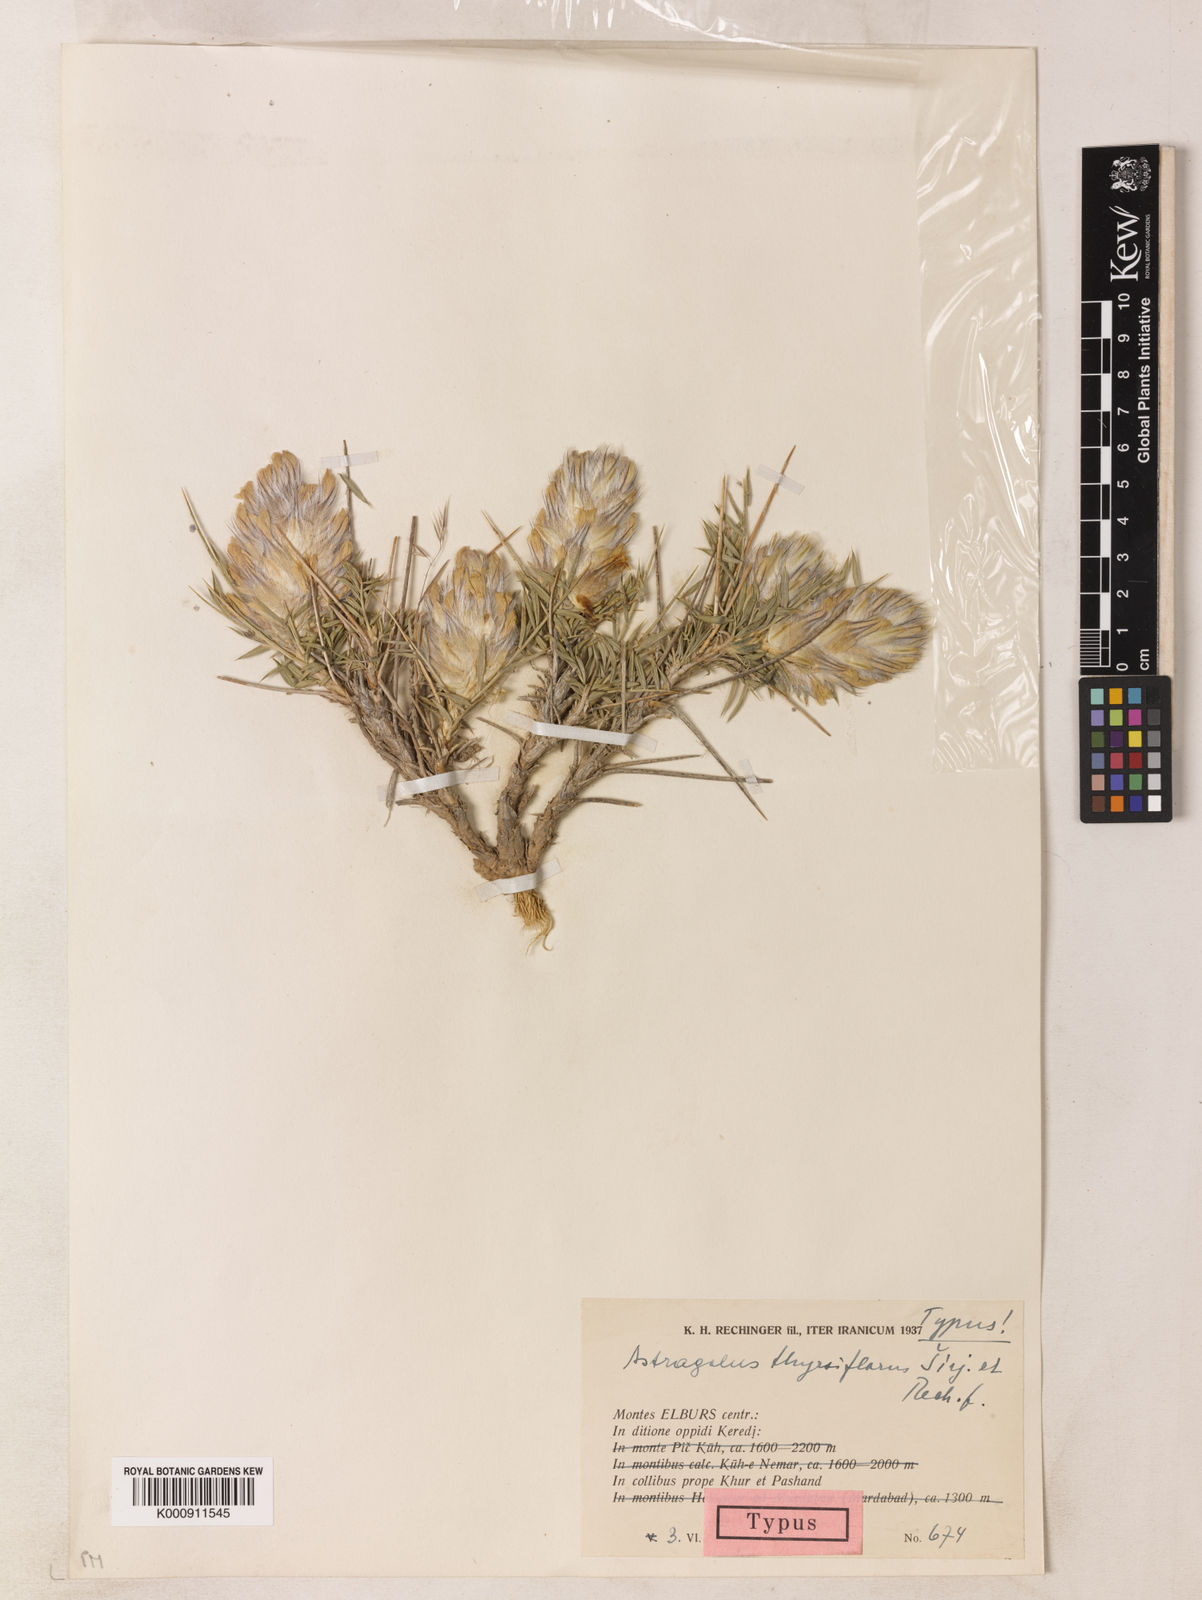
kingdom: Plantae
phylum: Tracheophyta
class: Magnoliopsida
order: Fabales
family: Fabaceae
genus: Astragalus
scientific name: Astragalus kohrudicus
